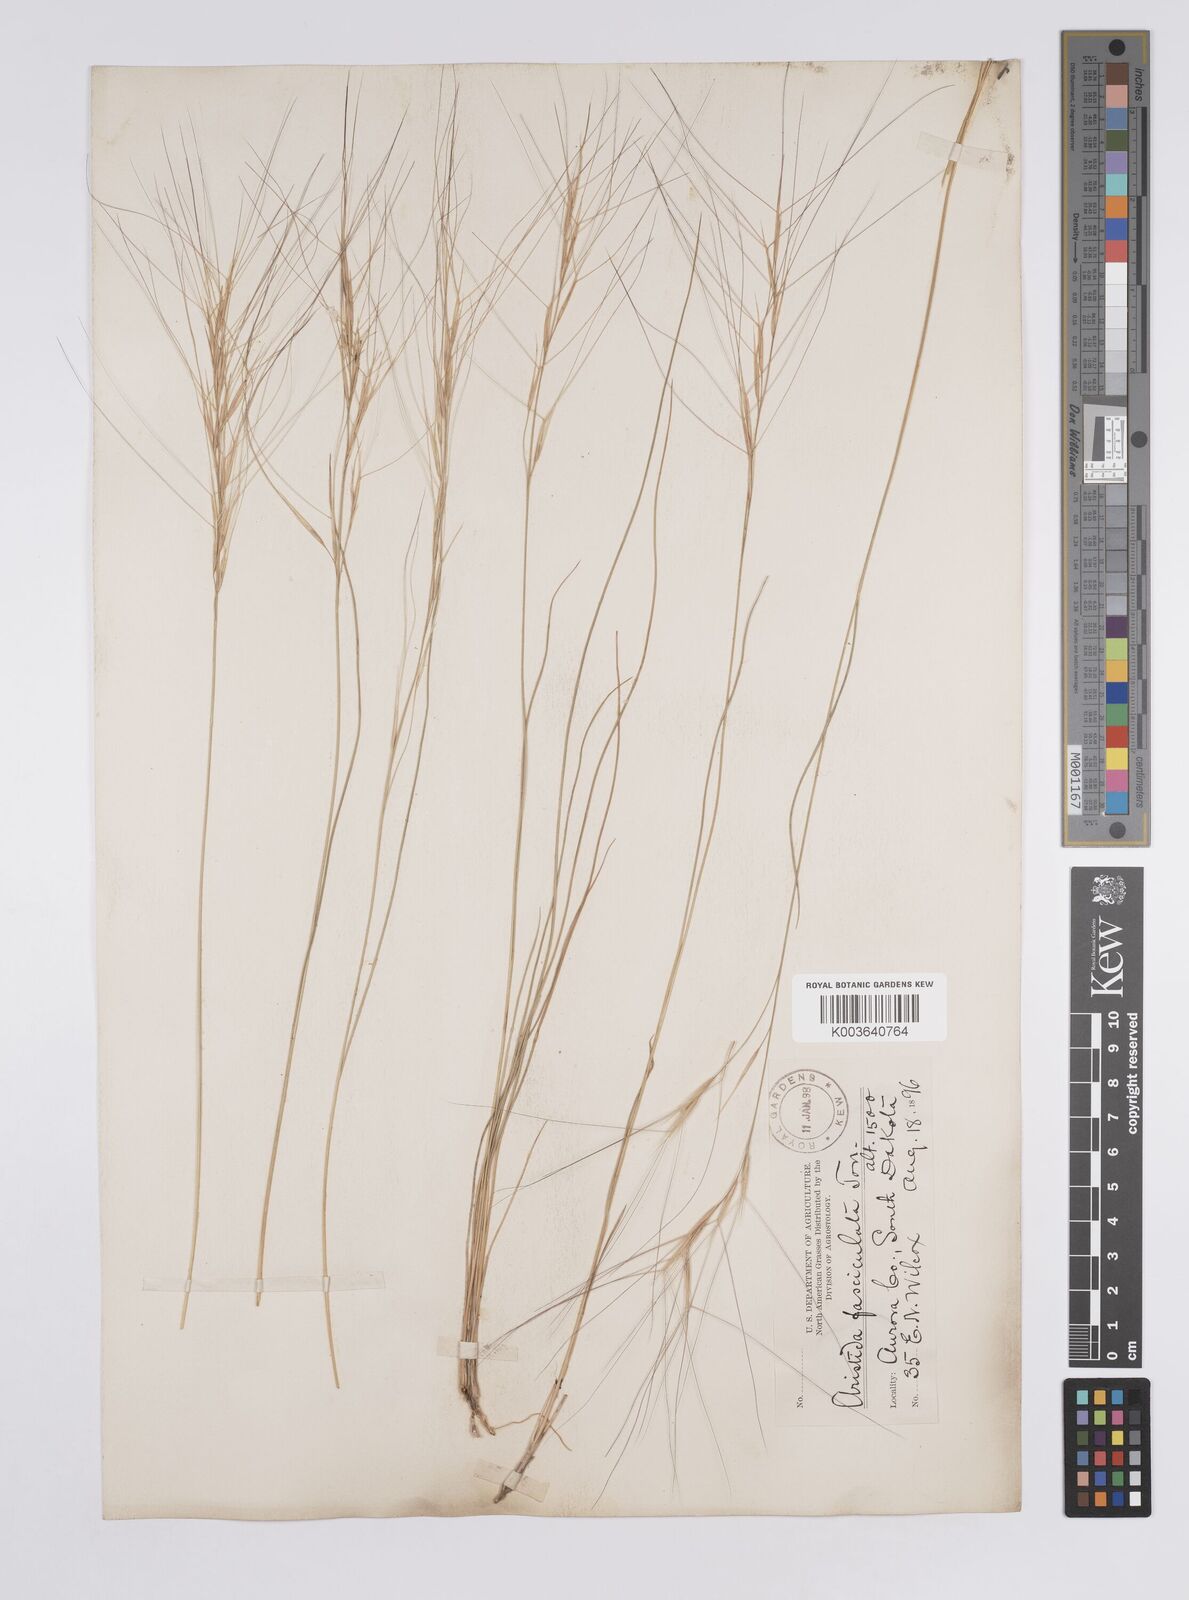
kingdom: Plantae
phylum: Tracheophyta
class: Liliopsida
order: Poales
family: Poaceae
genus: Aristida
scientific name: Aristida adscensionis
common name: Sixweeks threeawn
